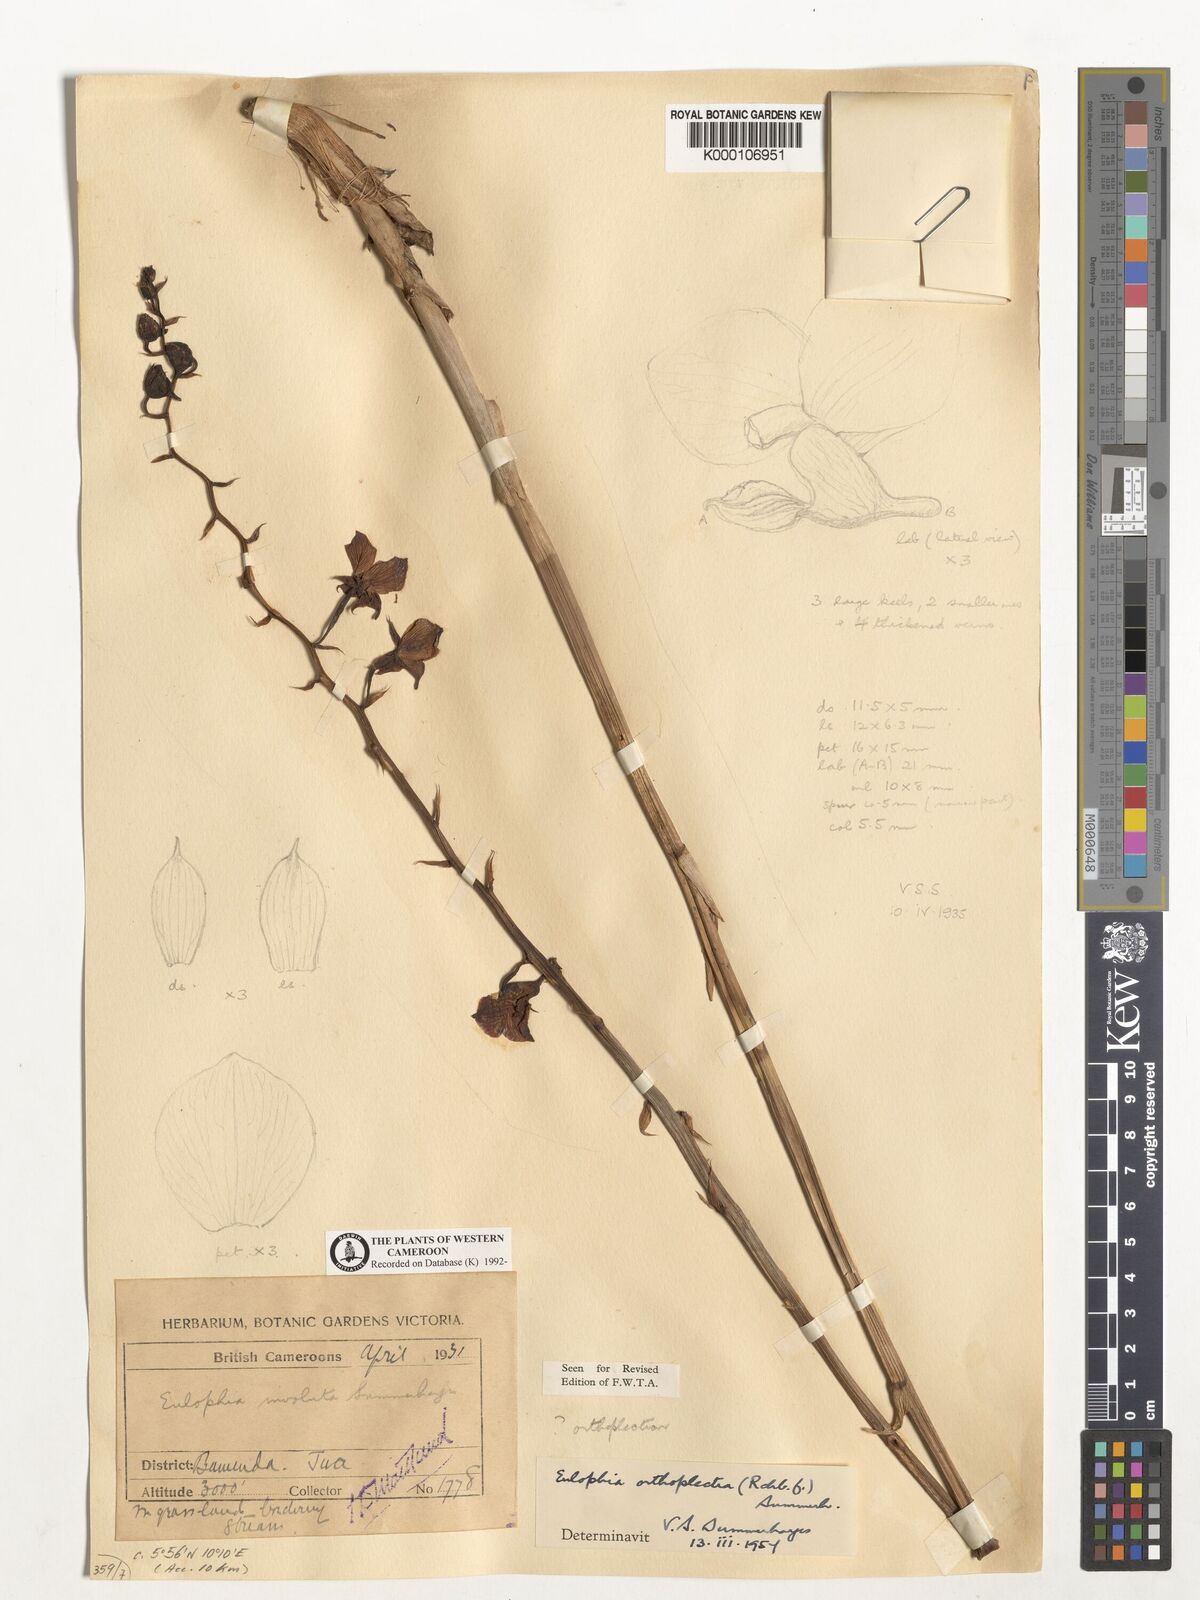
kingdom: Plantae
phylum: Tracheophyta
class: Liliopsida
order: Asparagales
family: Orchidaceae
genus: Eulophia
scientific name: Eulophia orthoplectra
